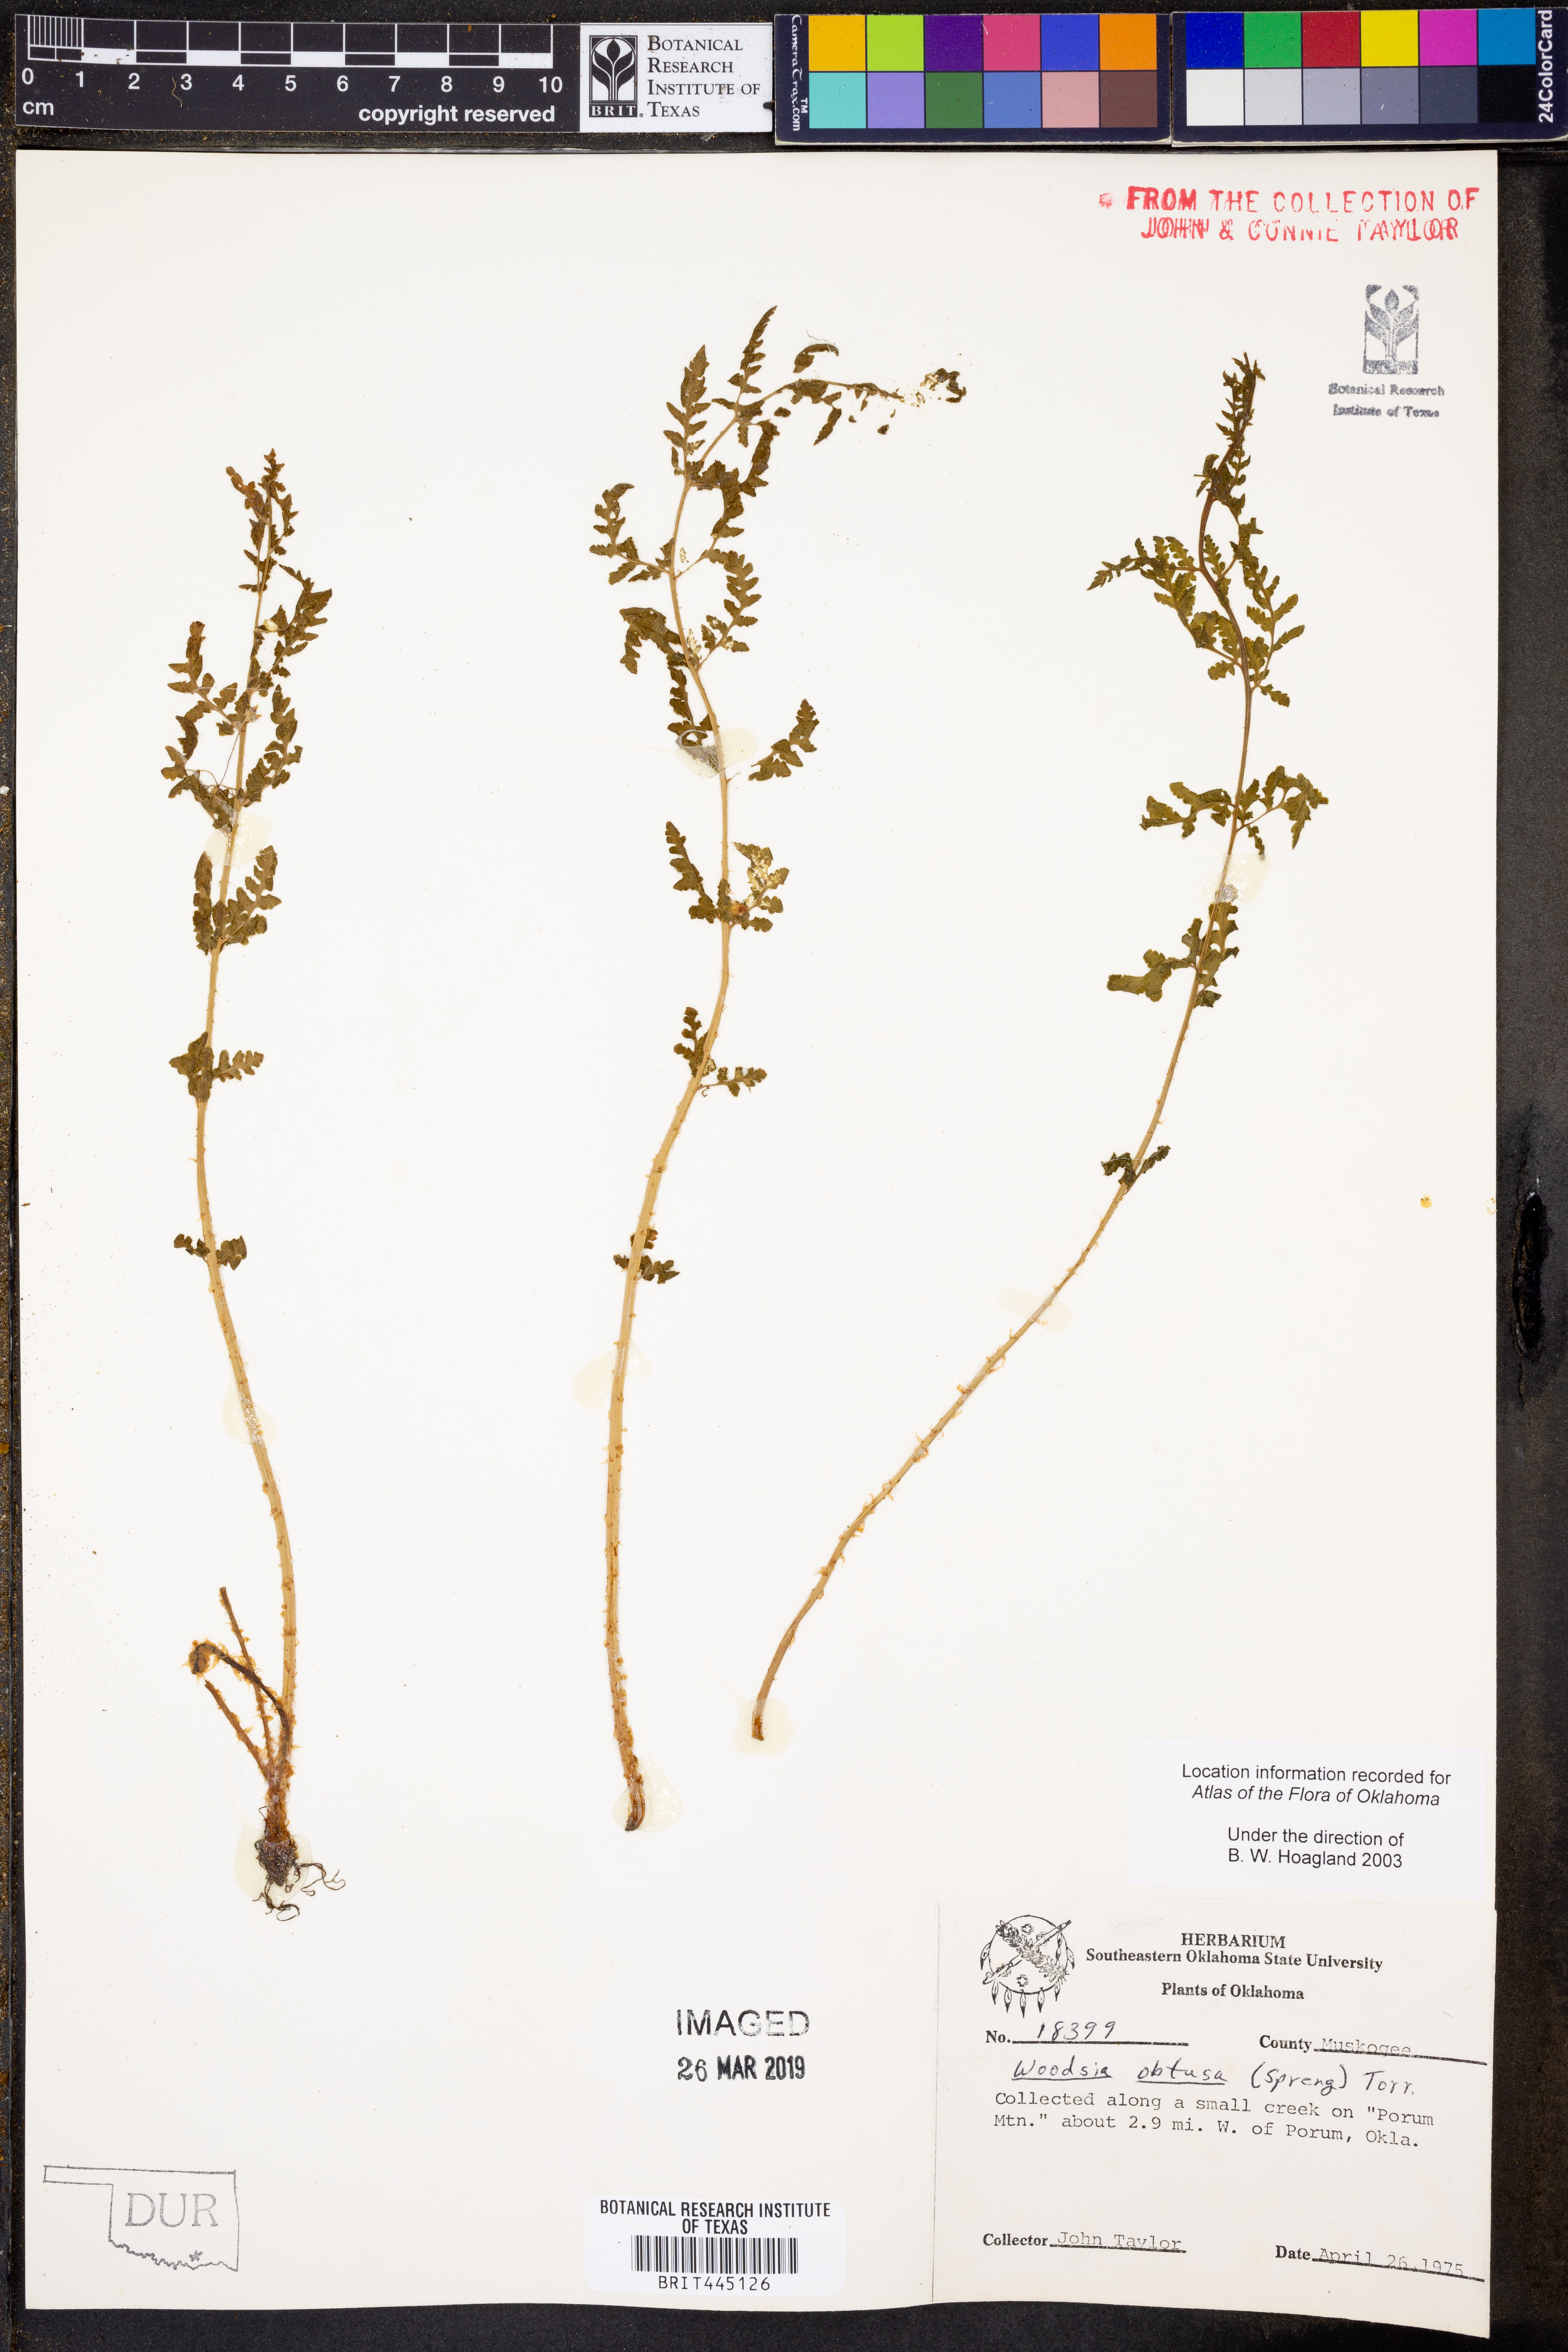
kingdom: Plantae
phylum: Tracheophyta
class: Polypodiopsida
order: Polypodiales
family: Woodsiaceae
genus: Physematium
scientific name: Physematium obtusum
